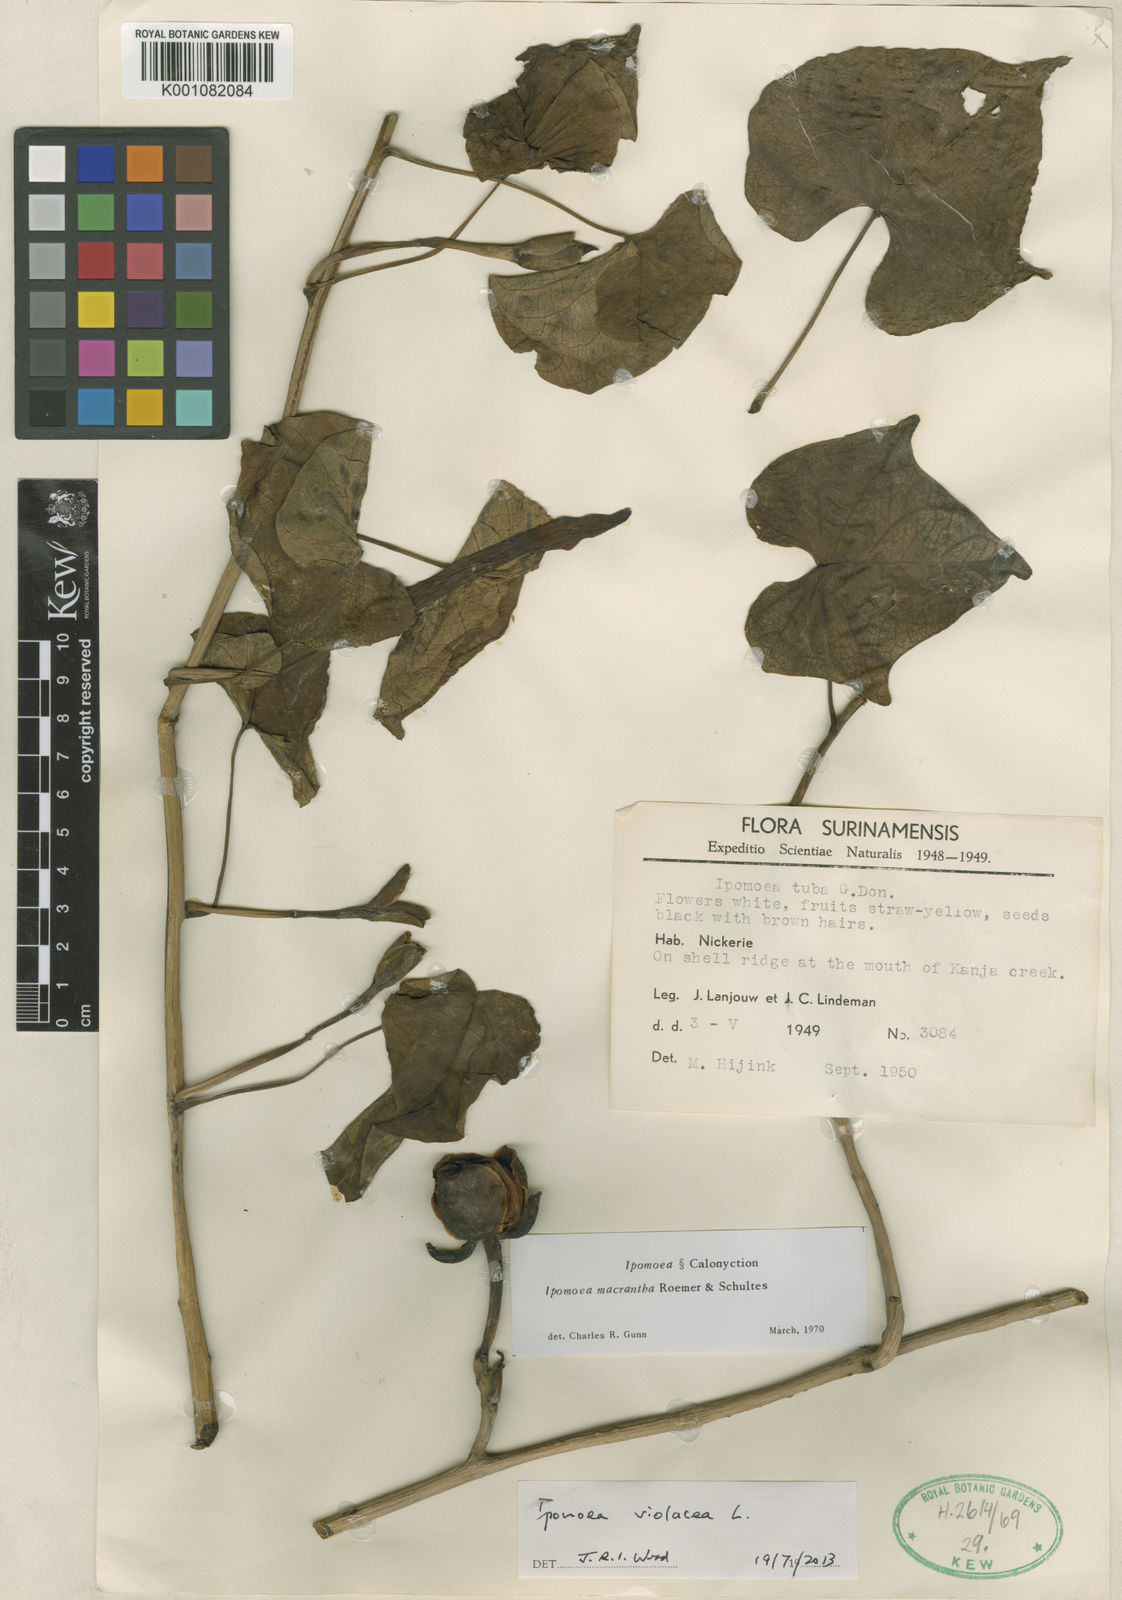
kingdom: Plantae
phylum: Tracheophyta
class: Magnoliopsida
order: Solanales
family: Convolvulaceae
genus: Ipomoea
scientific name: Ipomoea violacea
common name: Beach moonflower
